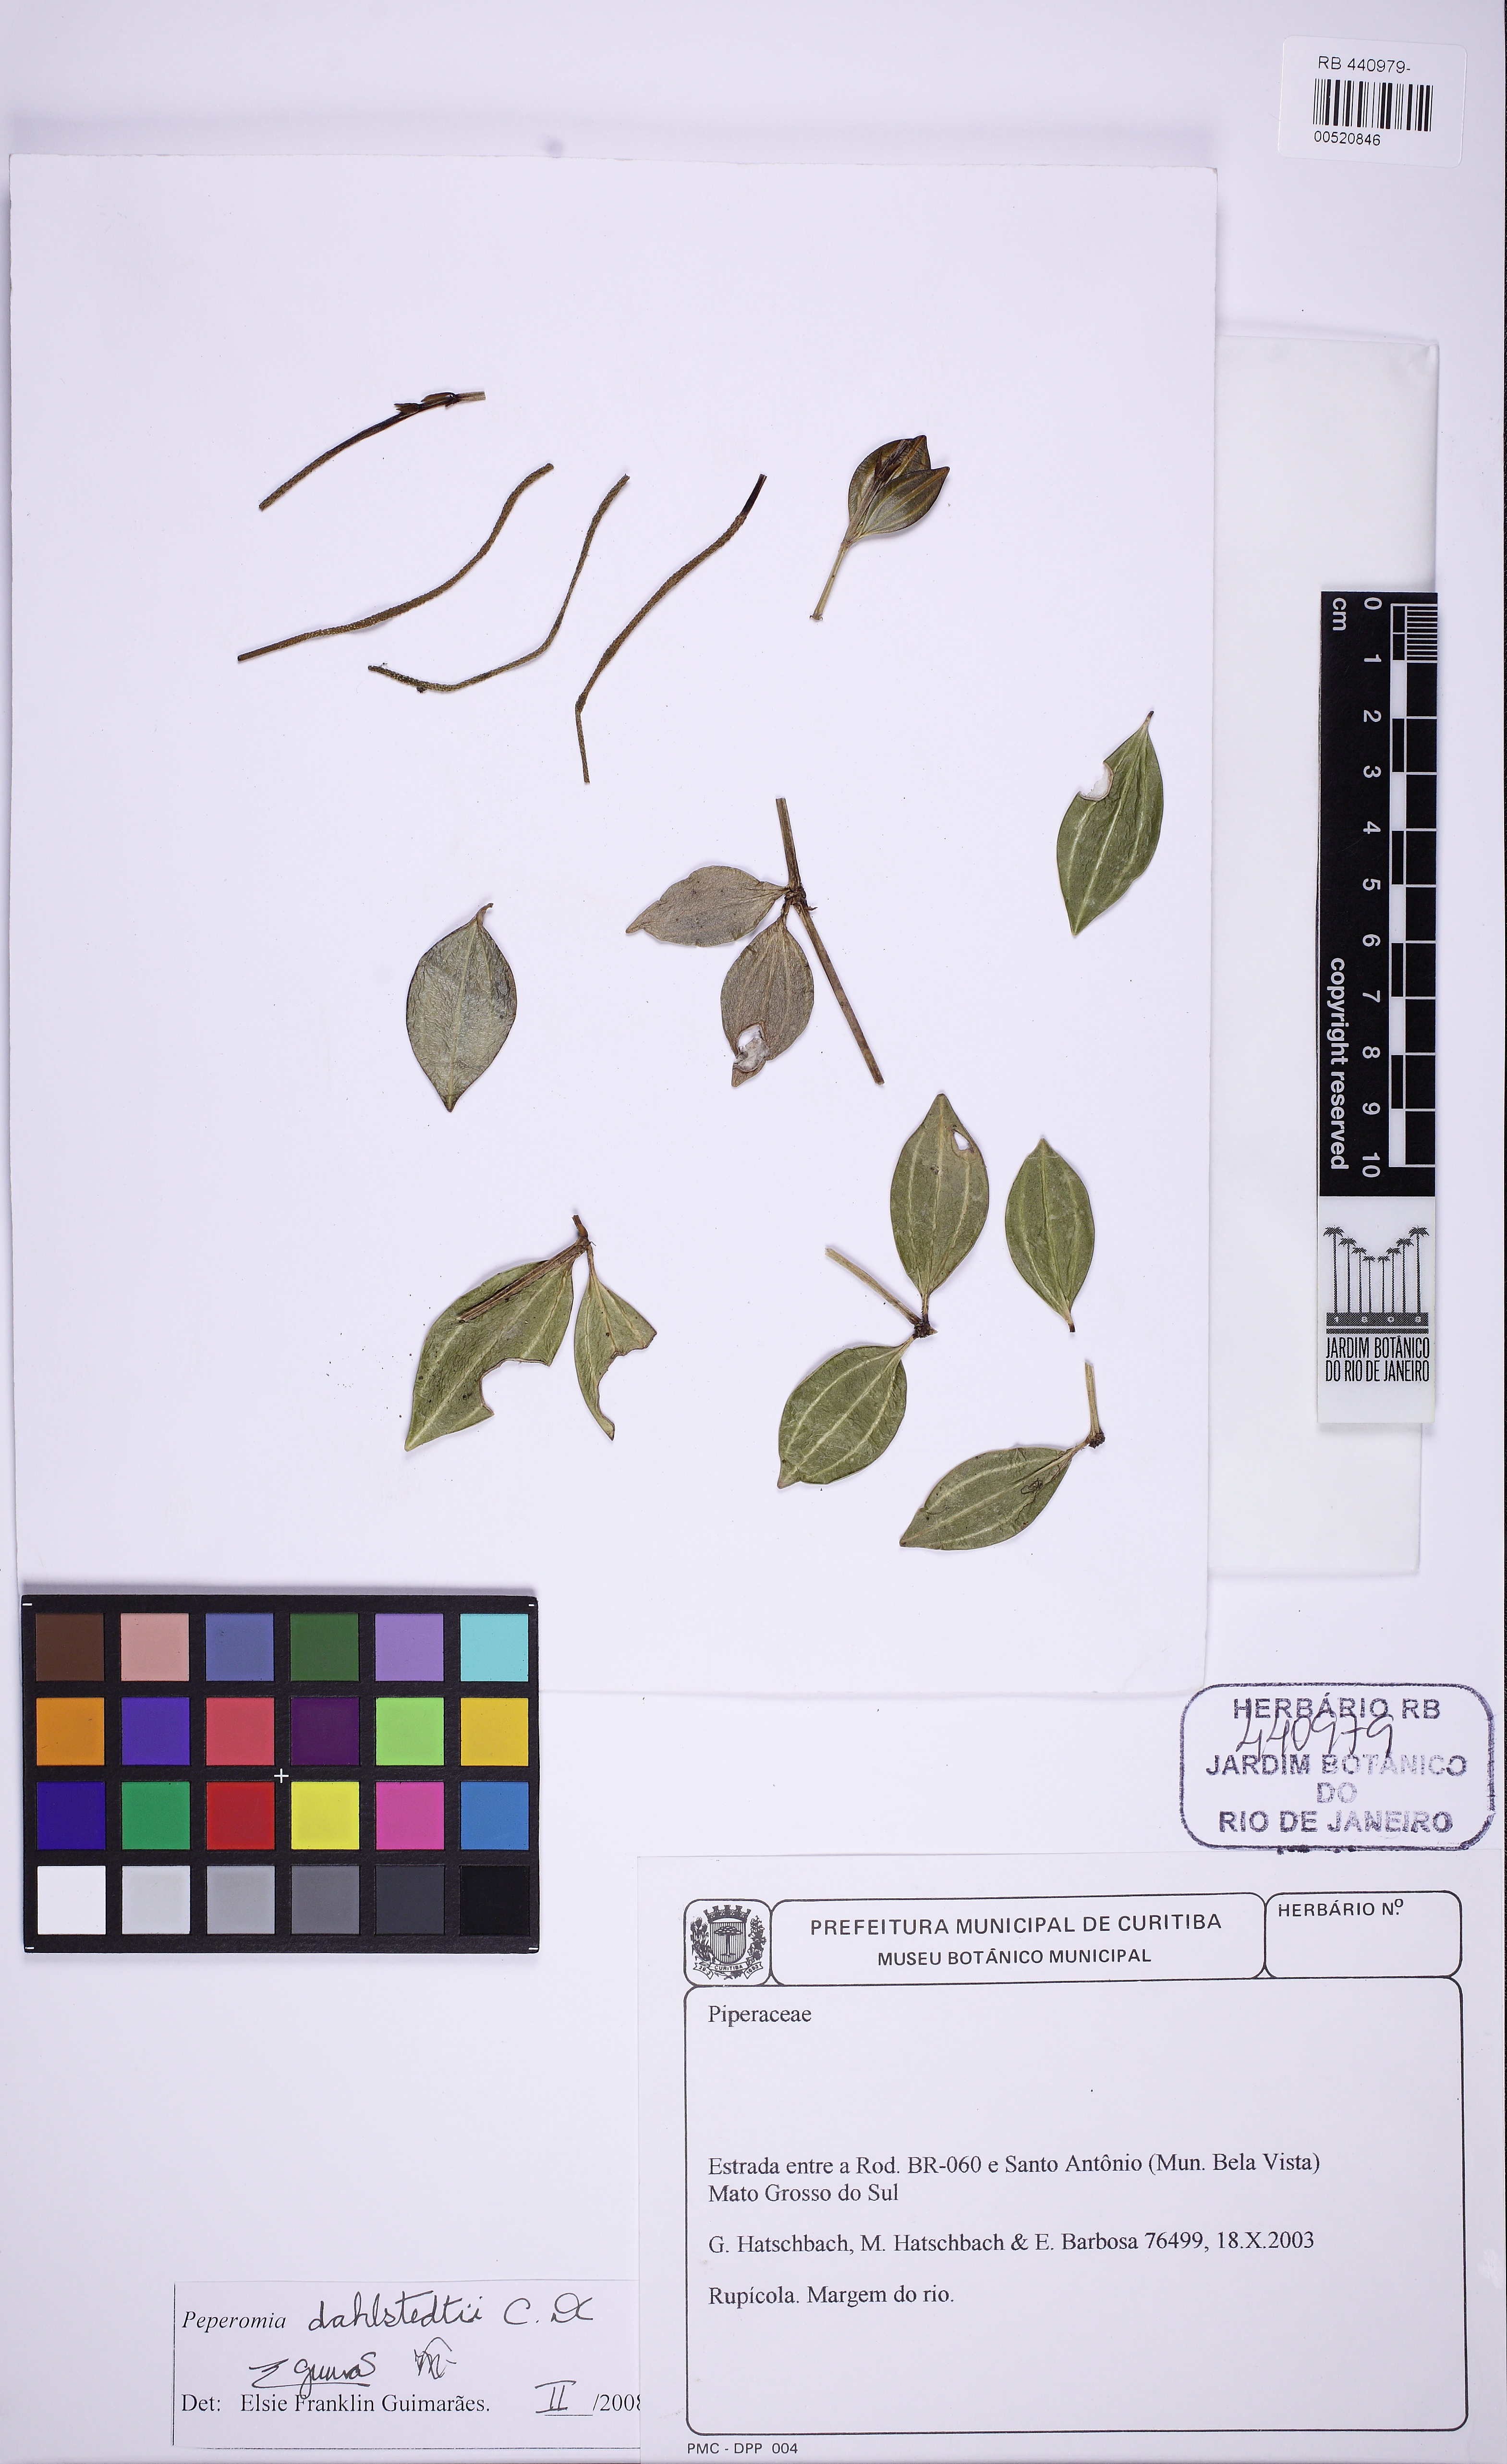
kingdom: Plantae
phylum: Tracheophyta
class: Magnoliopsida
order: Piperales
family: Piperaceae
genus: Peperomia
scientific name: Peperomia dahlstedtii
